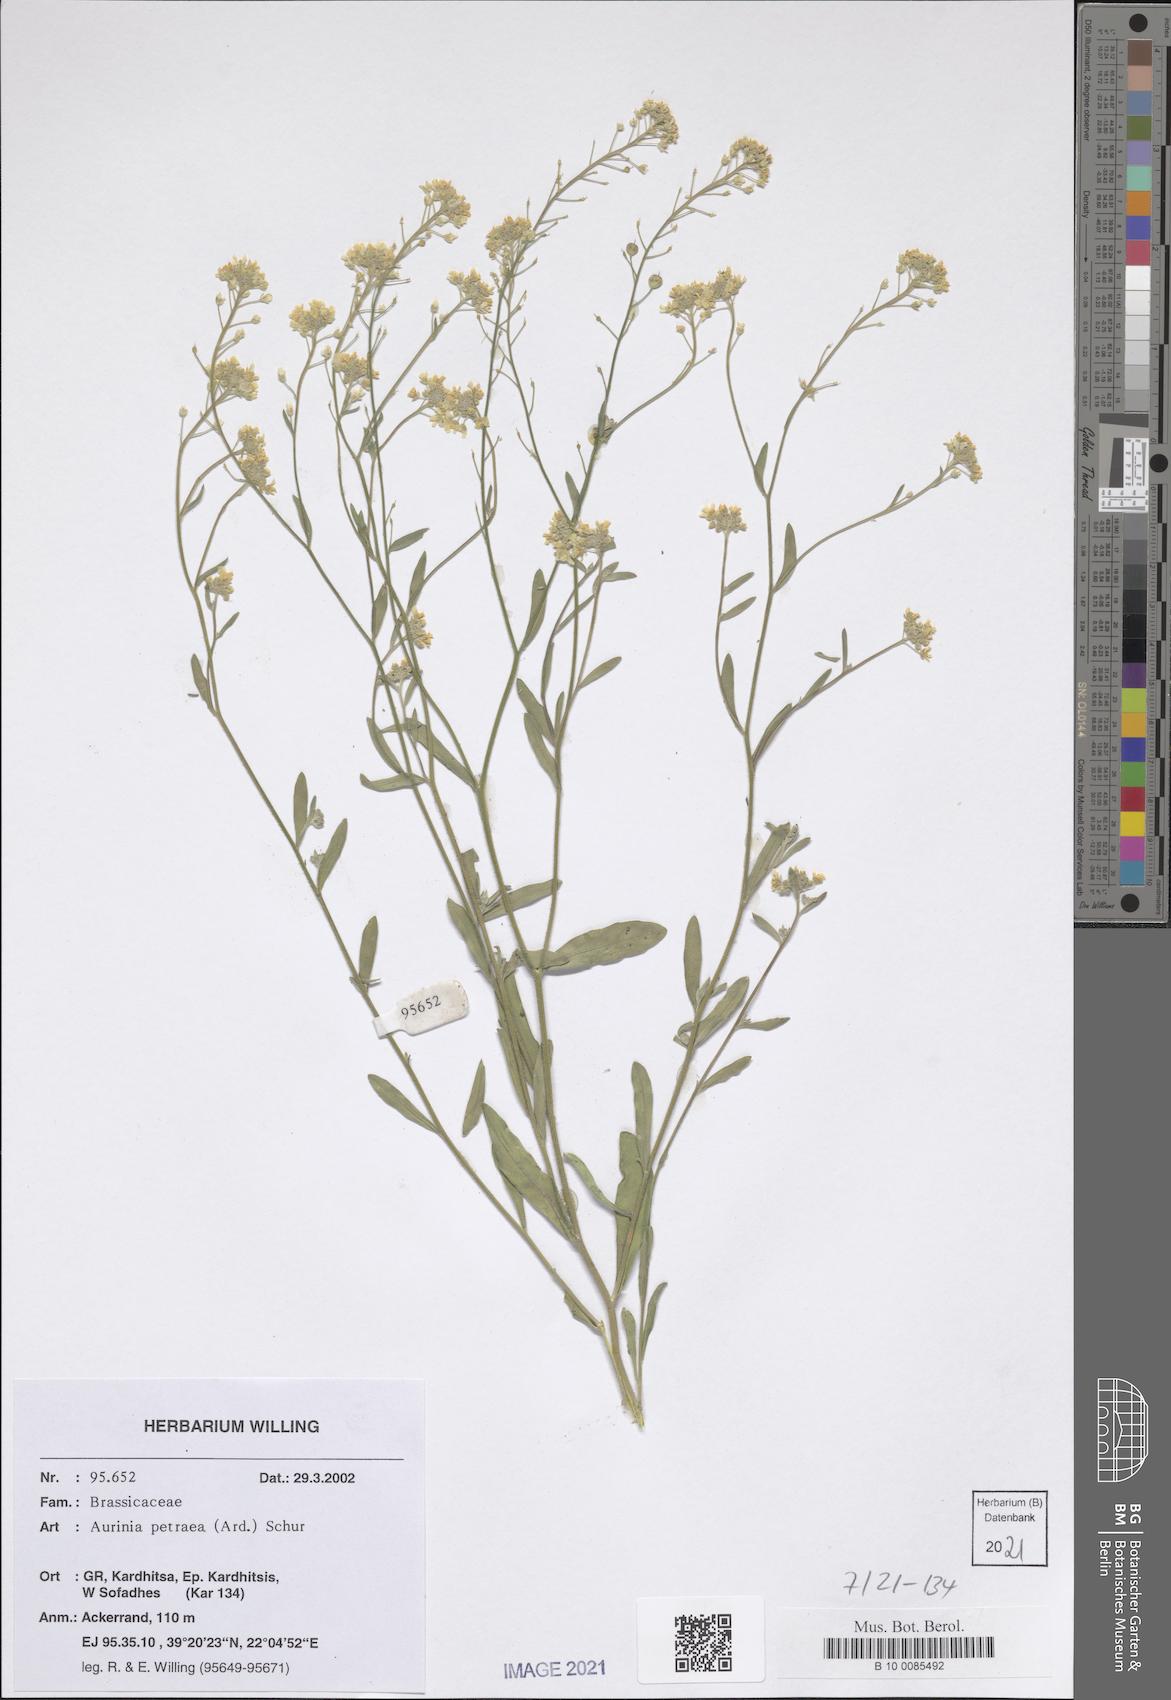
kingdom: Plantae
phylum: Tracheophyta
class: Magnoliopsida
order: Brassicales
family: Brassicaceae
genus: Aurinia
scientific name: Aurinia petraea
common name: Goldentuft
